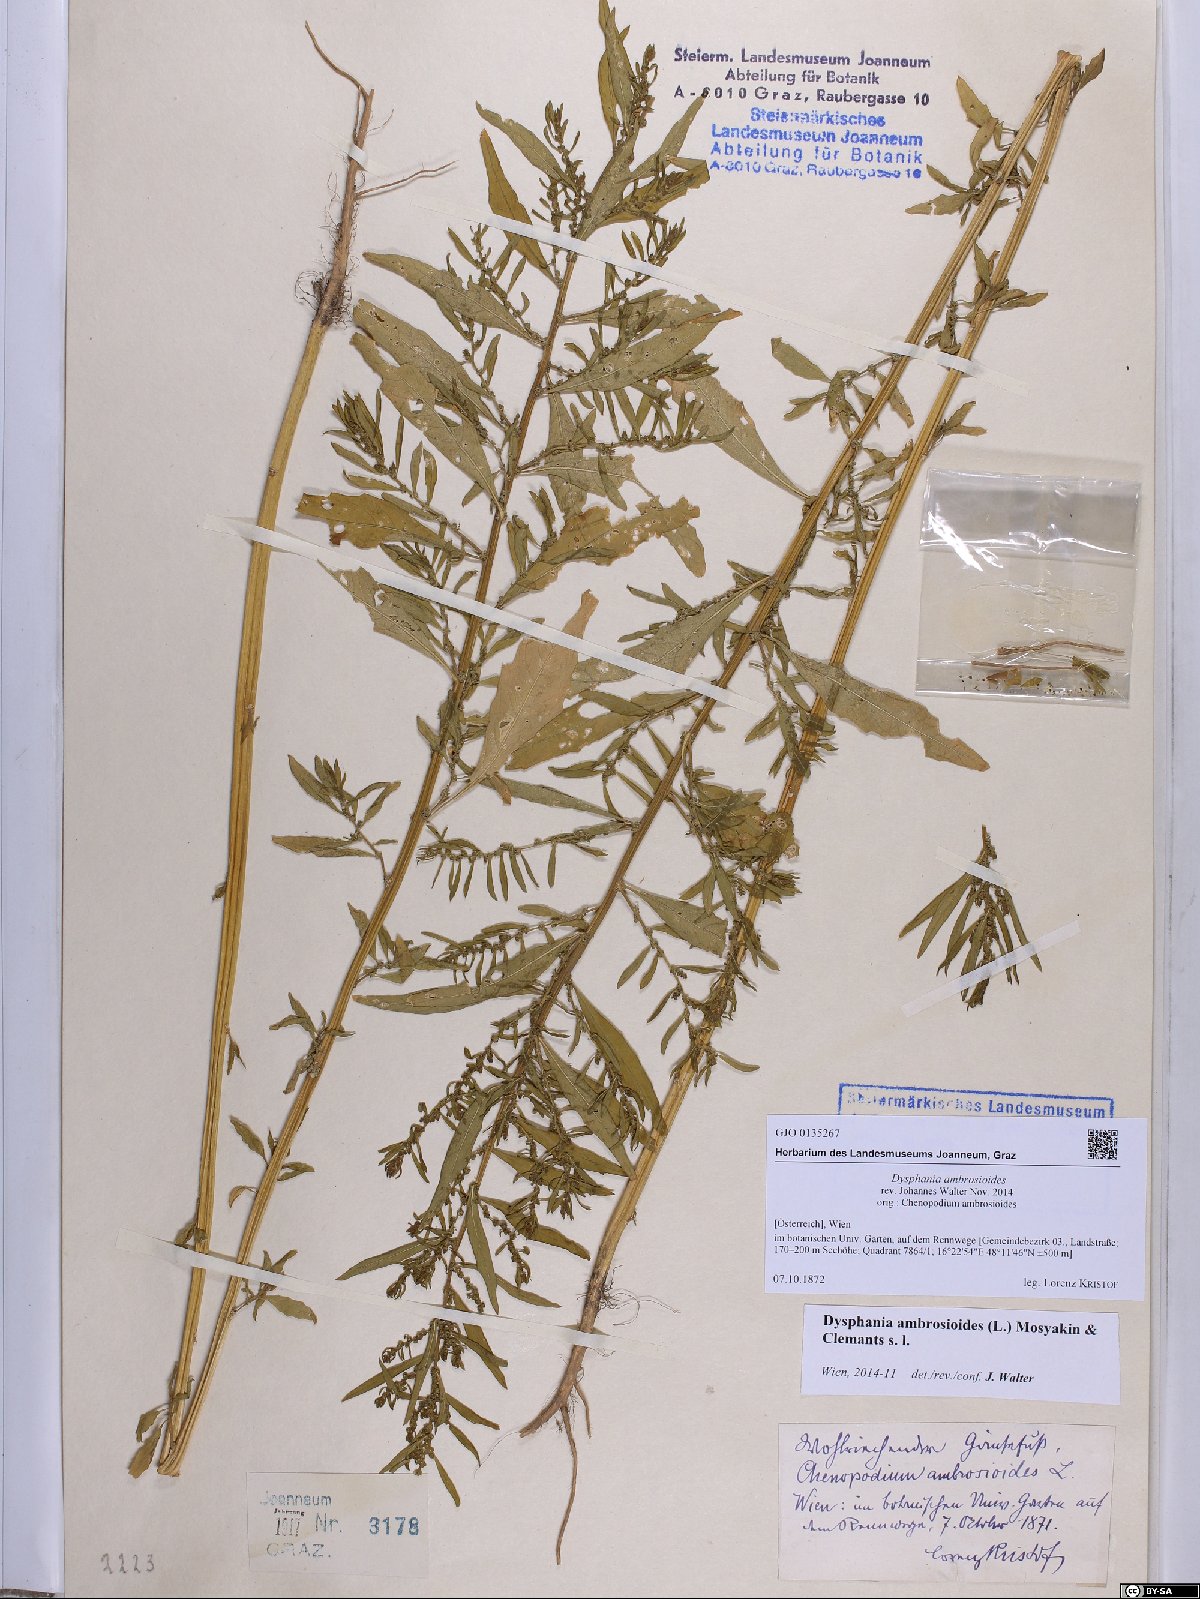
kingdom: Plantae
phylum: Tracheophyta
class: Magnoliopsida
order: Caryophyllales
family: Amaranthaceae
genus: Dysphania
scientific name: Dysphania ambrosioides
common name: Wormseed
